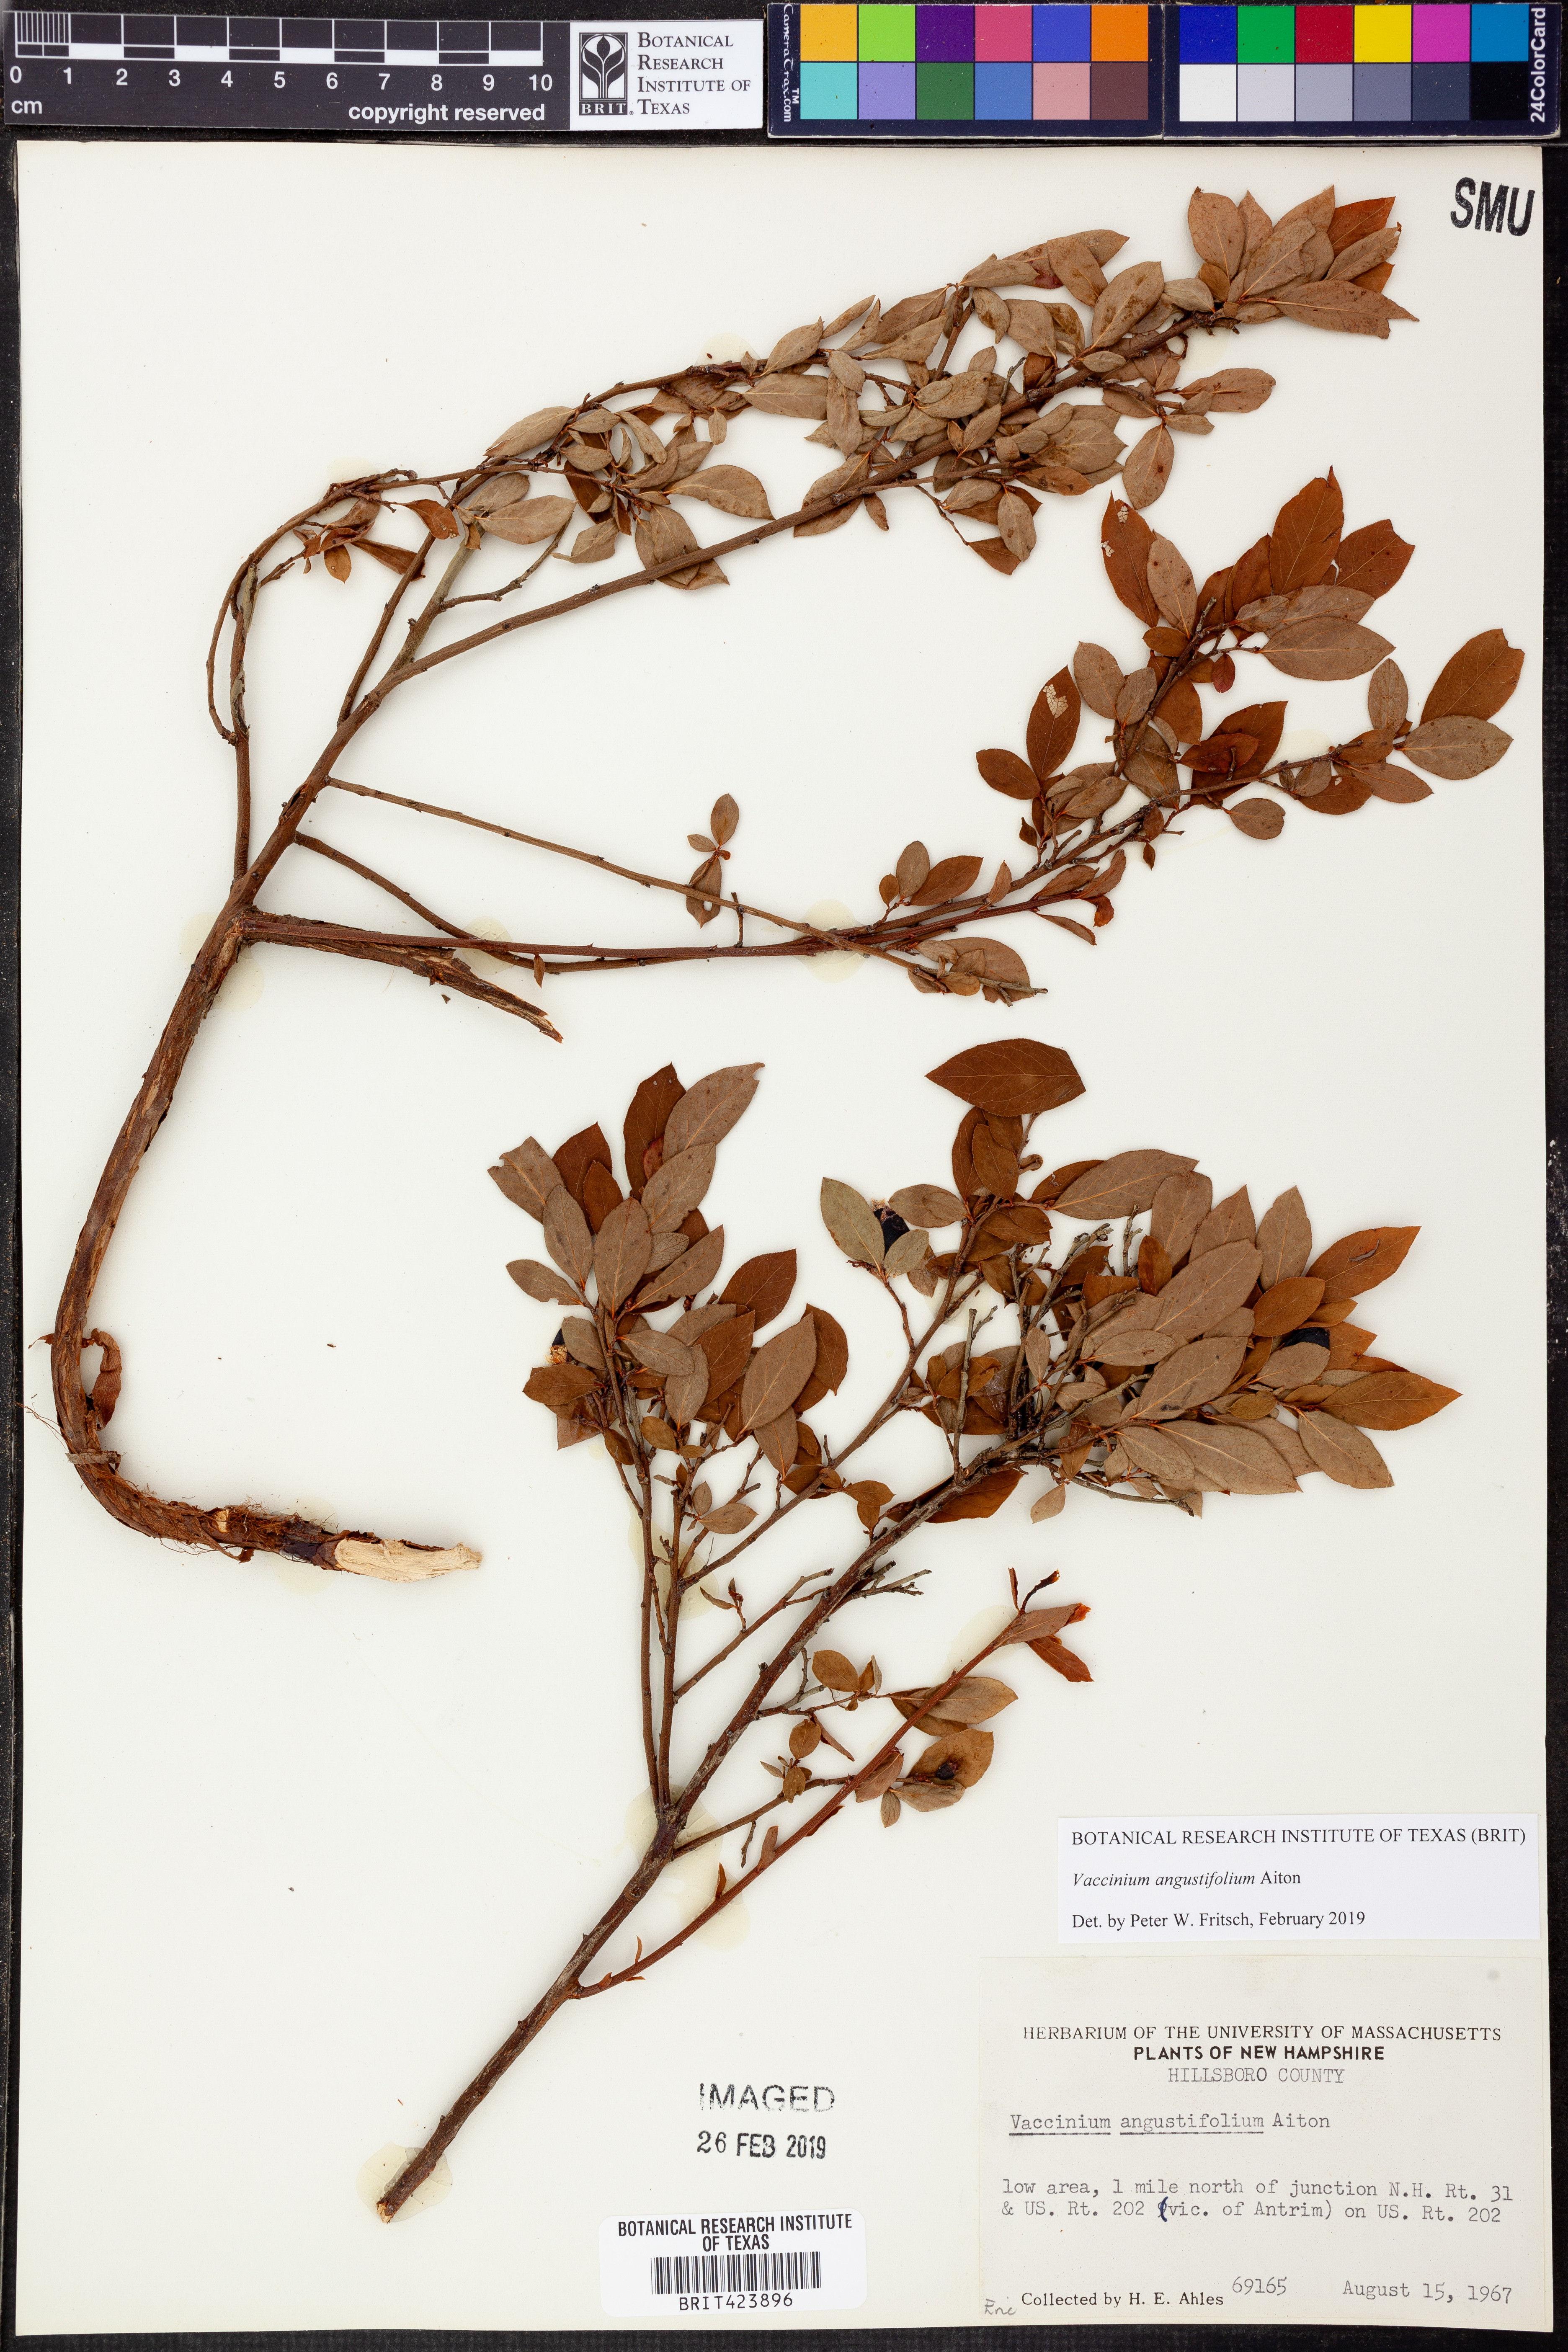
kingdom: Plantae
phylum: Tracheophyta
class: Magnoliopsida
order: Ericales
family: Ericaceae
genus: Vaccinium
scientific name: Vaccinium angustifolium
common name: Early lowbush blueberry
